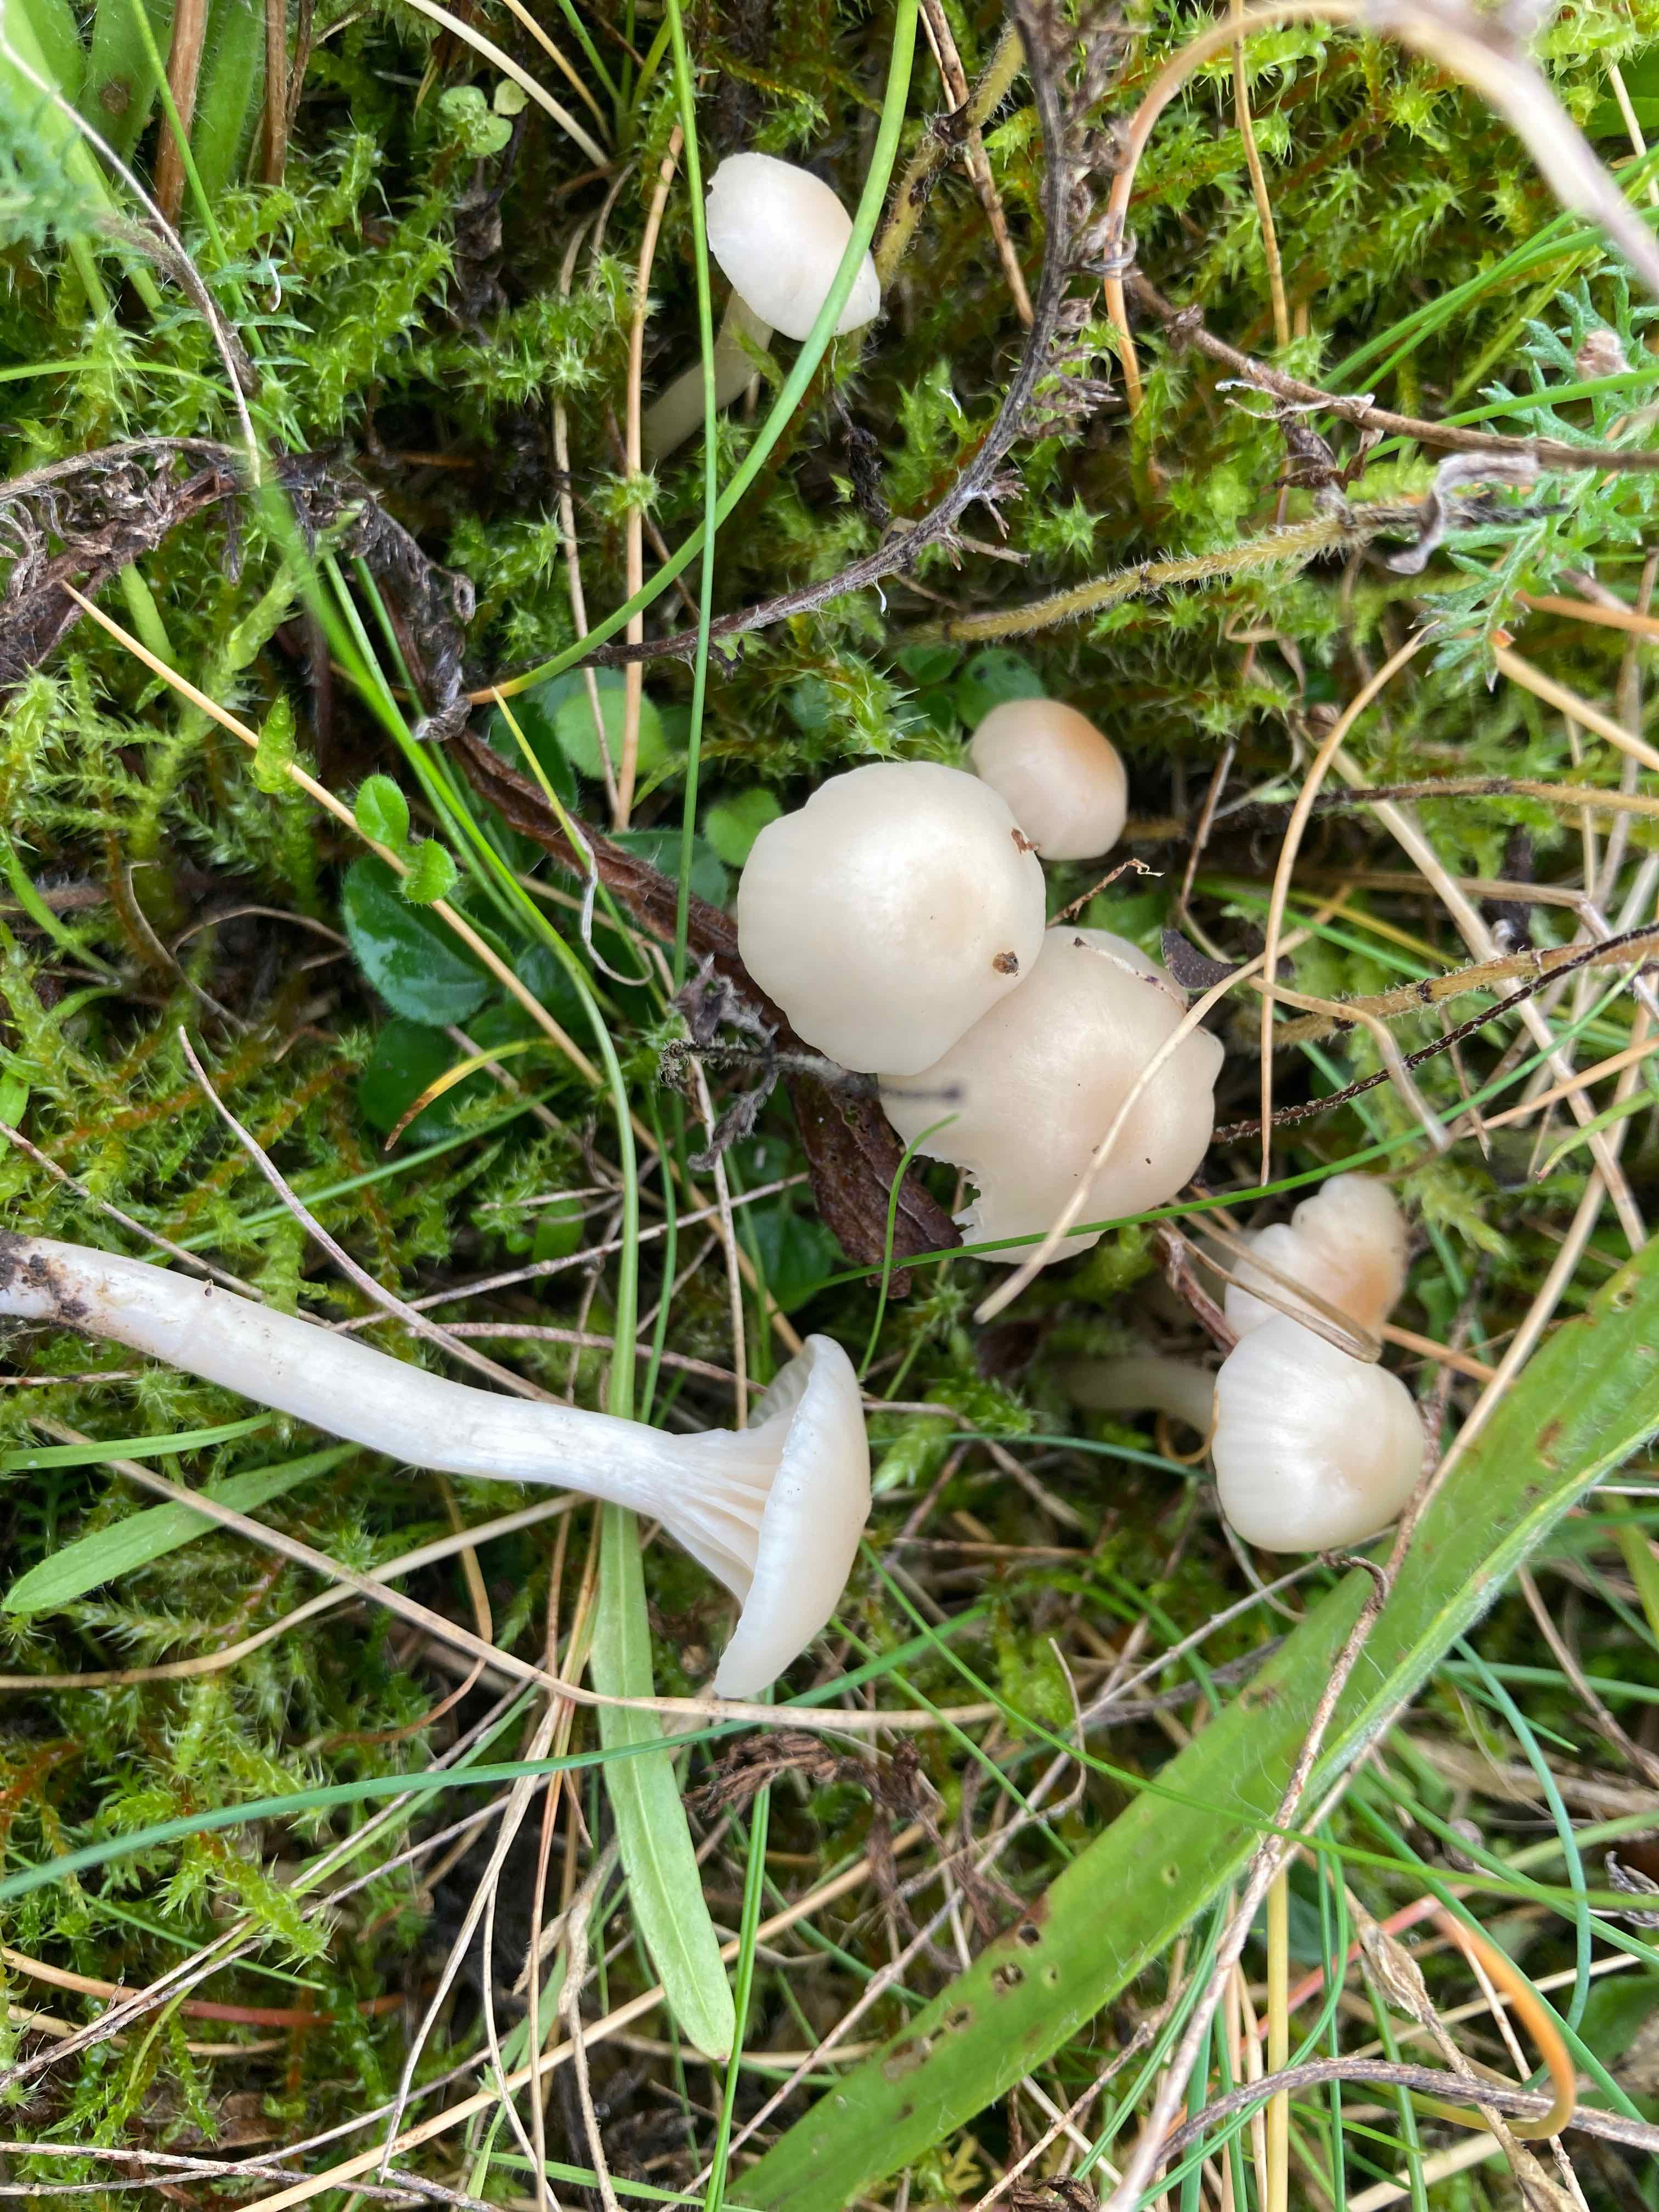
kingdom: Fungi
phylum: Basidiomycota
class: Agaricomycetes
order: Agaricales
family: Hygrophoraceae
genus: Cuphophyllus
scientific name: Cuphophyllus virgineus
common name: isabella-vokshat
